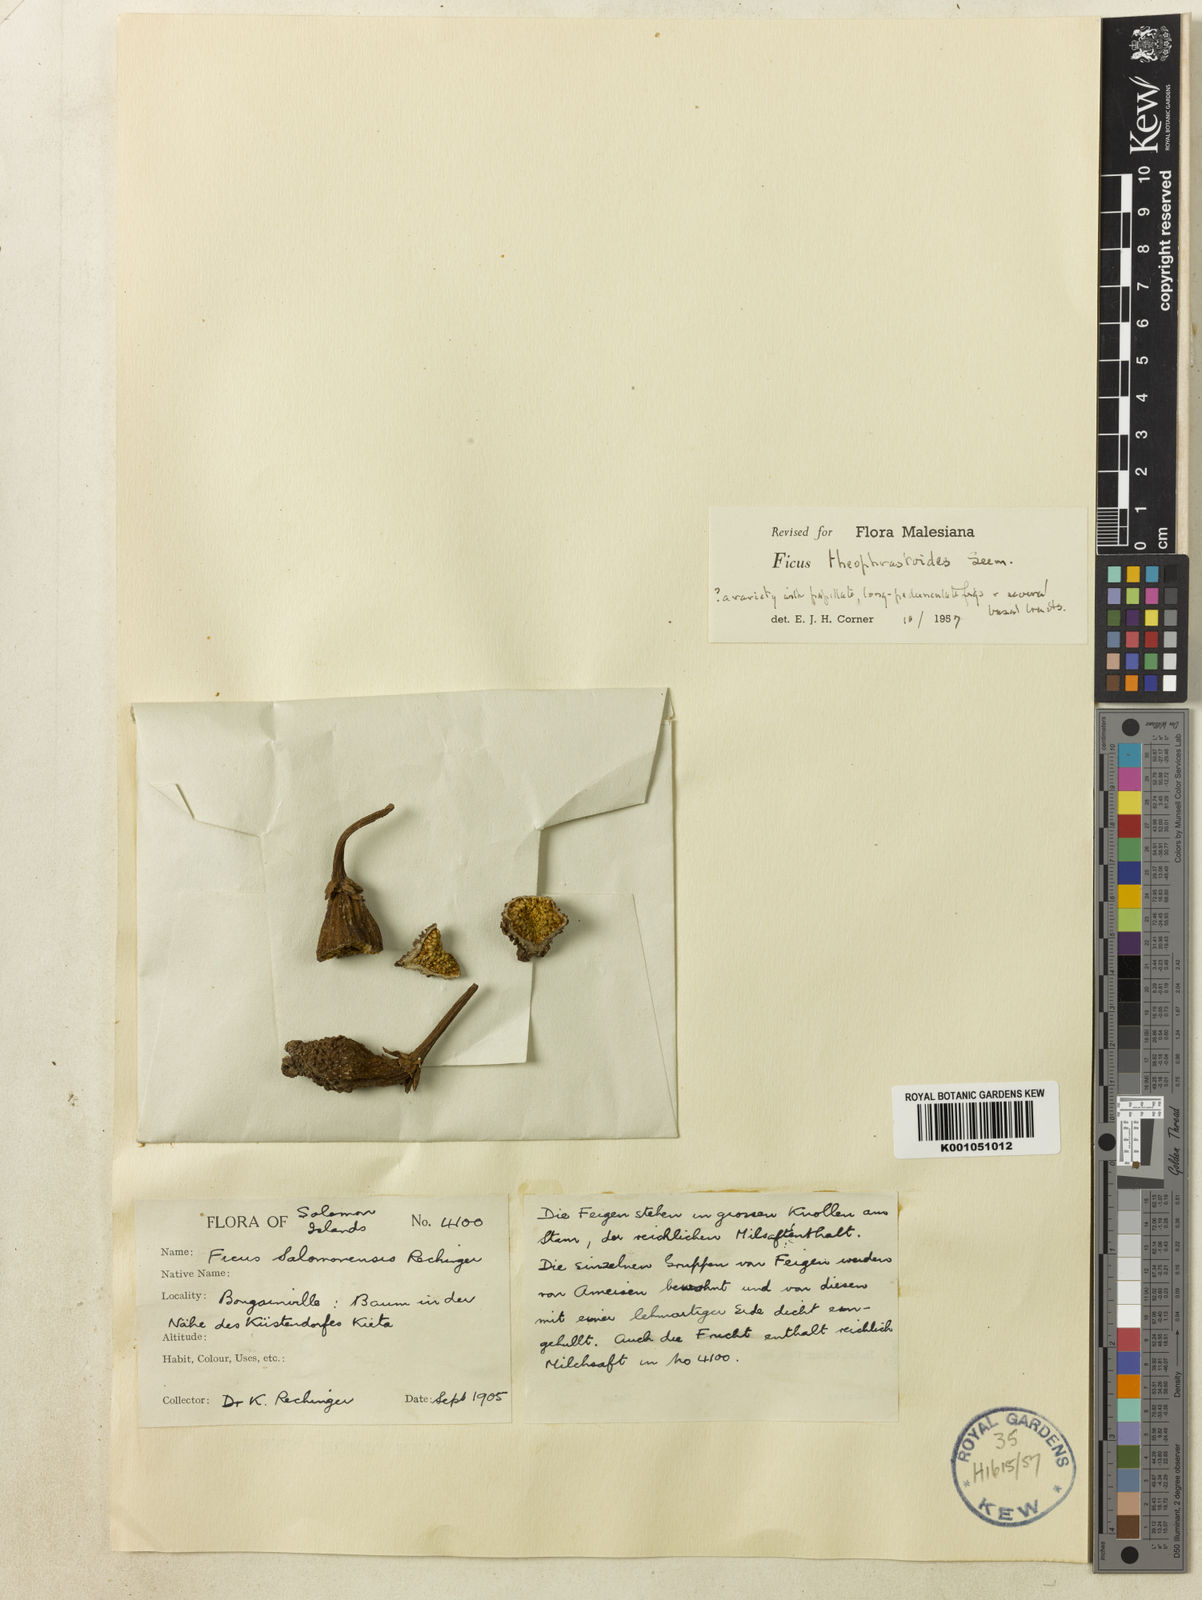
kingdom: Plantae
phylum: Tracheophyta
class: Magnoliopsida
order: Rosales
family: Moraceae
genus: Ficus
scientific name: Ficus theophrastoides
